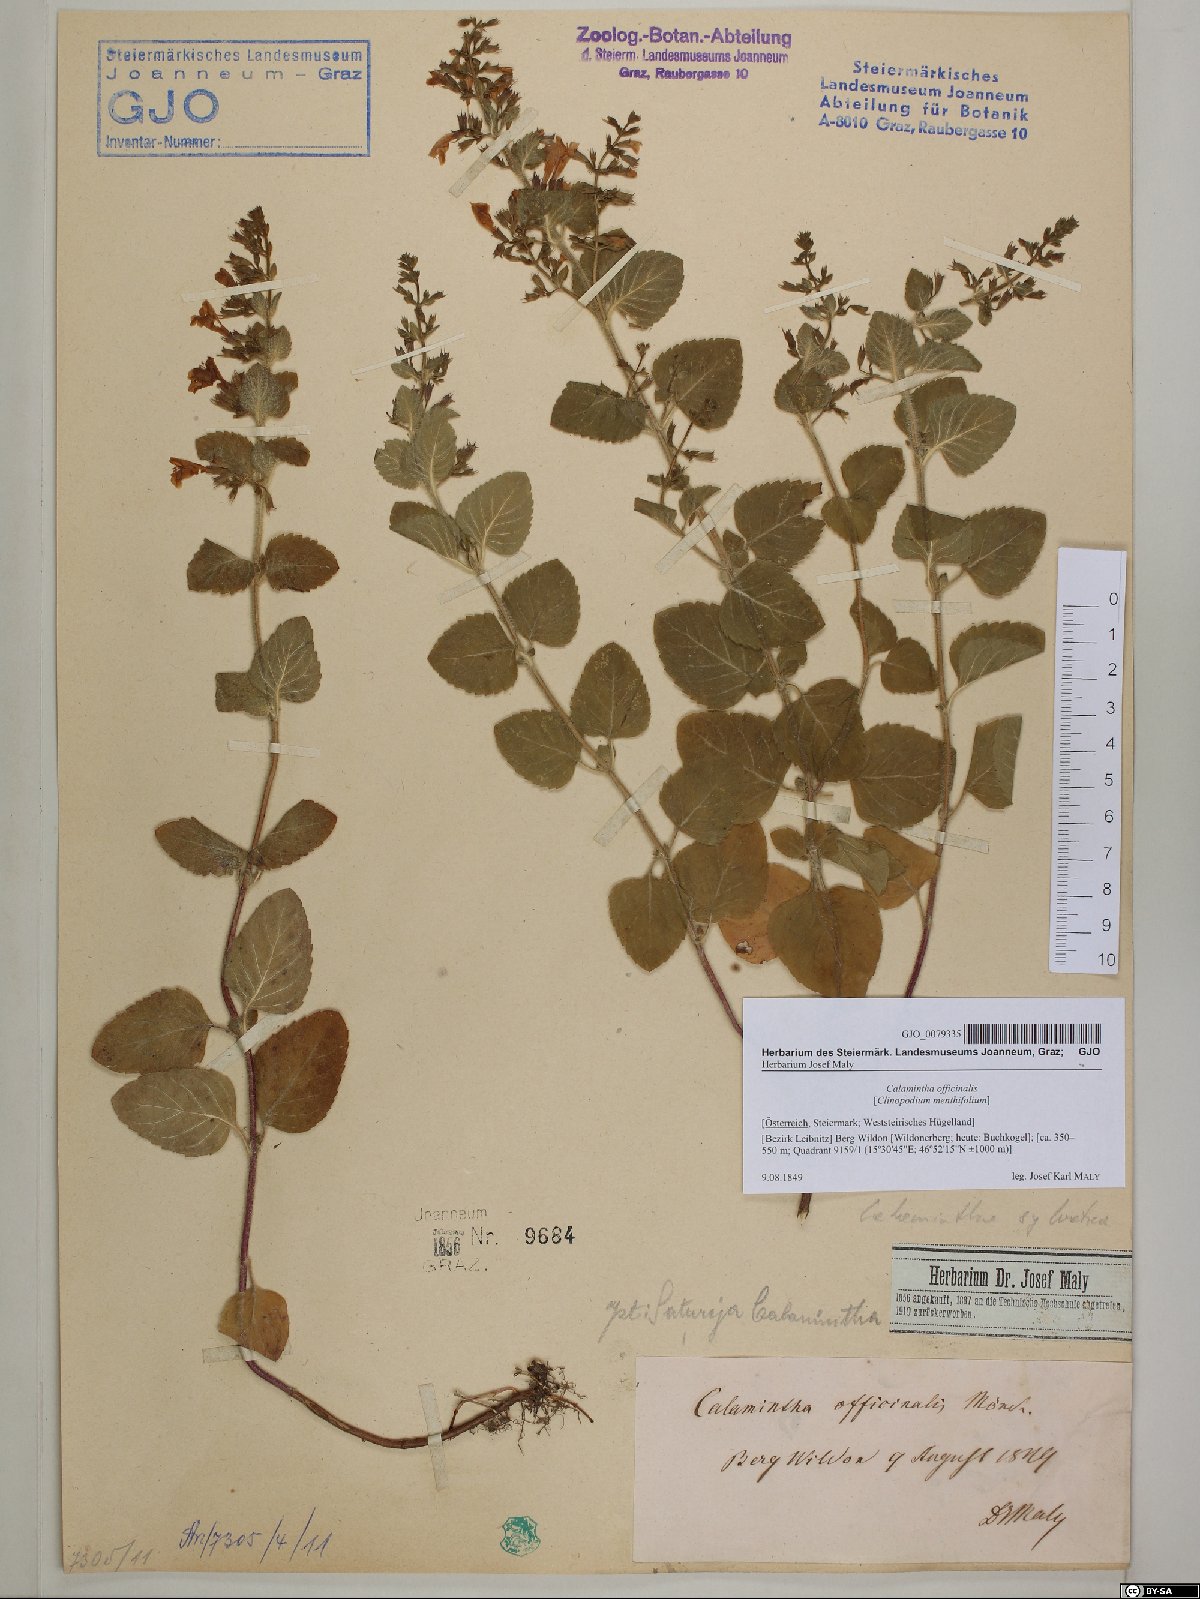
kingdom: Plantae
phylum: Tracheophyta
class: Magnoliopsida
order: Lamiales
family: Lamiaceae
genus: Clinopodium
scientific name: Clinopodium nepeta
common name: Lesser calamint
